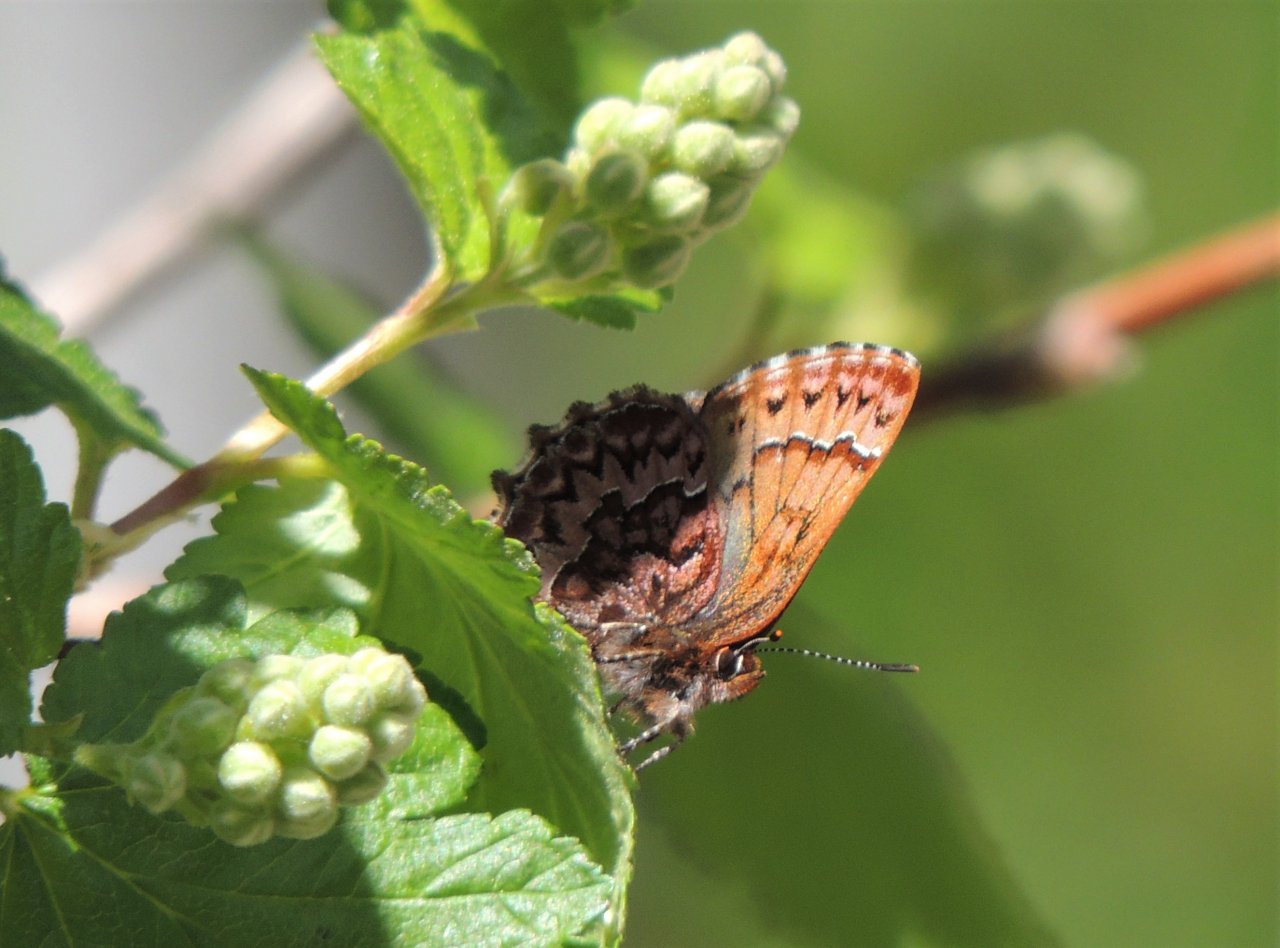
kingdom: Animalia
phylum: Arthropoda
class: Insecta
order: Lepidoptera
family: Lycaenidae
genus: Incisalia
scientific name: Incisalia eryphon
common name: Western Pine Elfin
